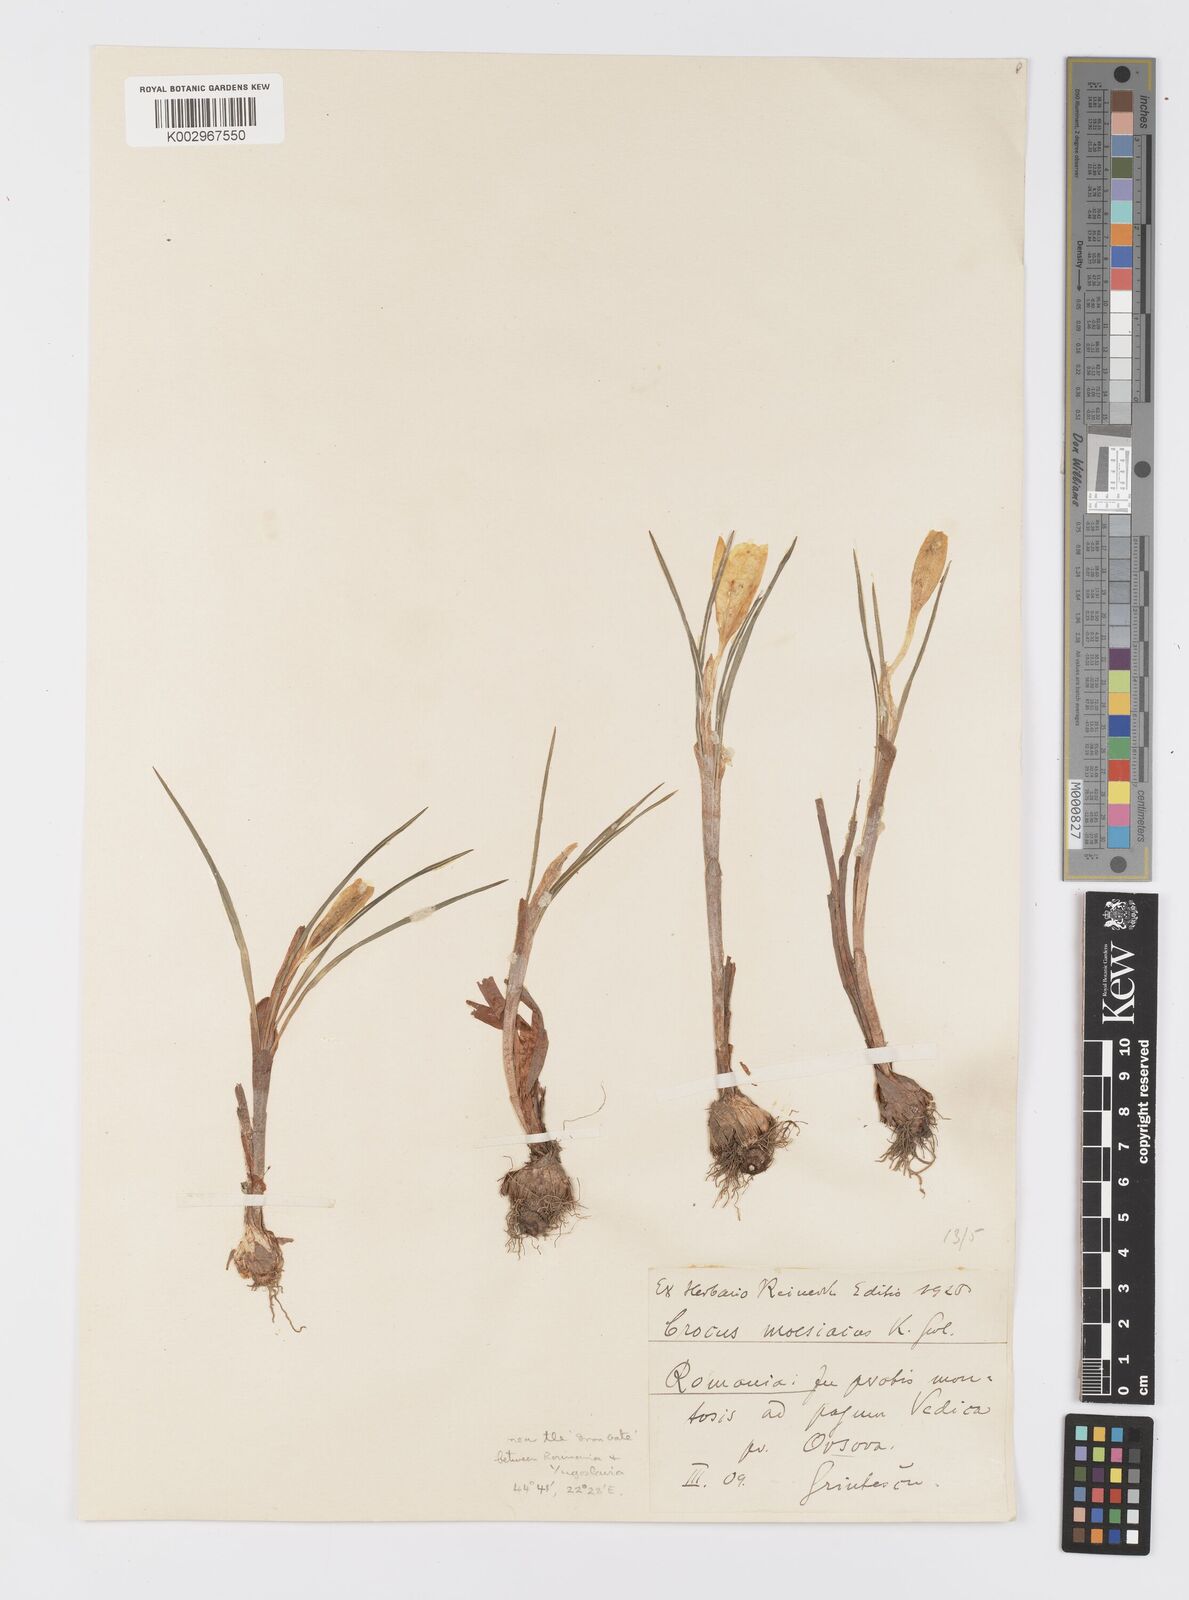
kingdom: Plantae
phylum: Tracheophyta
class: Liliopsida
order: Asparagales
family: Iridaceae
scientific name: Iridaceae
